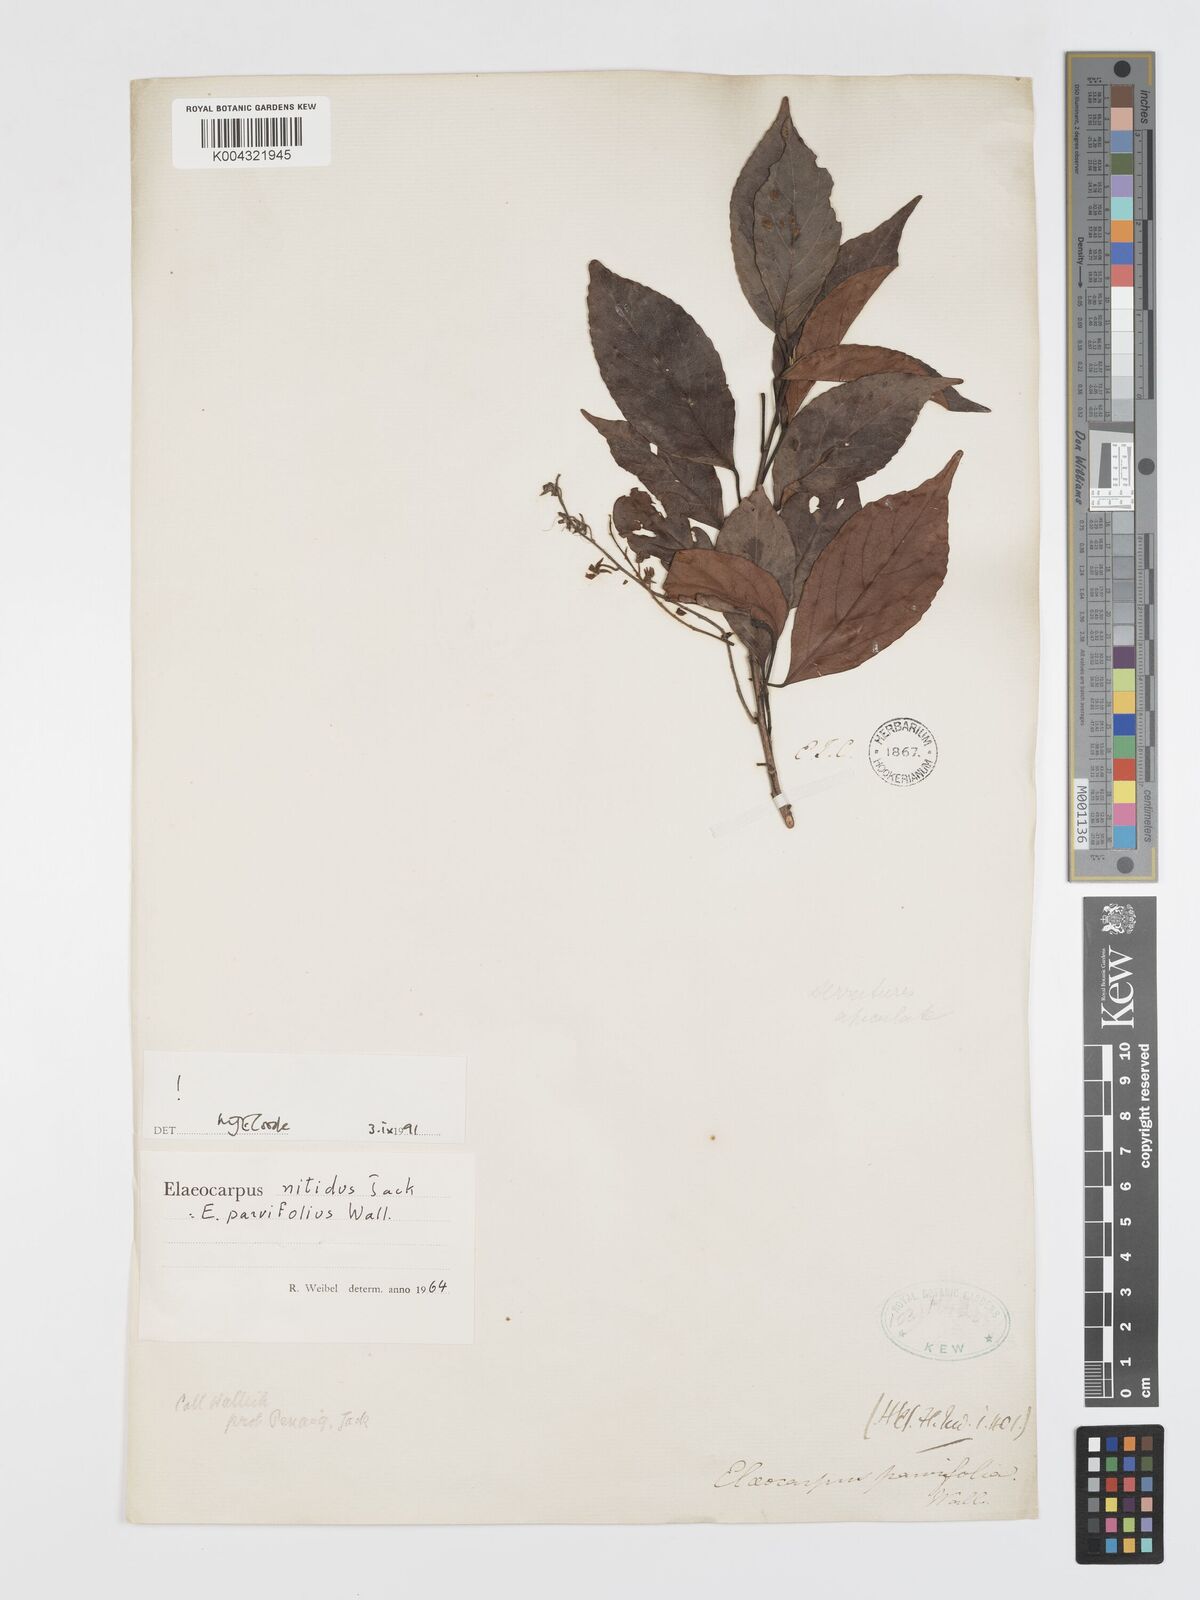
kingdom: Plantae
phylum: Tracheophyta
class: Magnoliopsida
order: Oxalidales
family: Elaeocarpaceae
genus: Elaeocarpus
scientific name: Elaeocarpus nitidus
